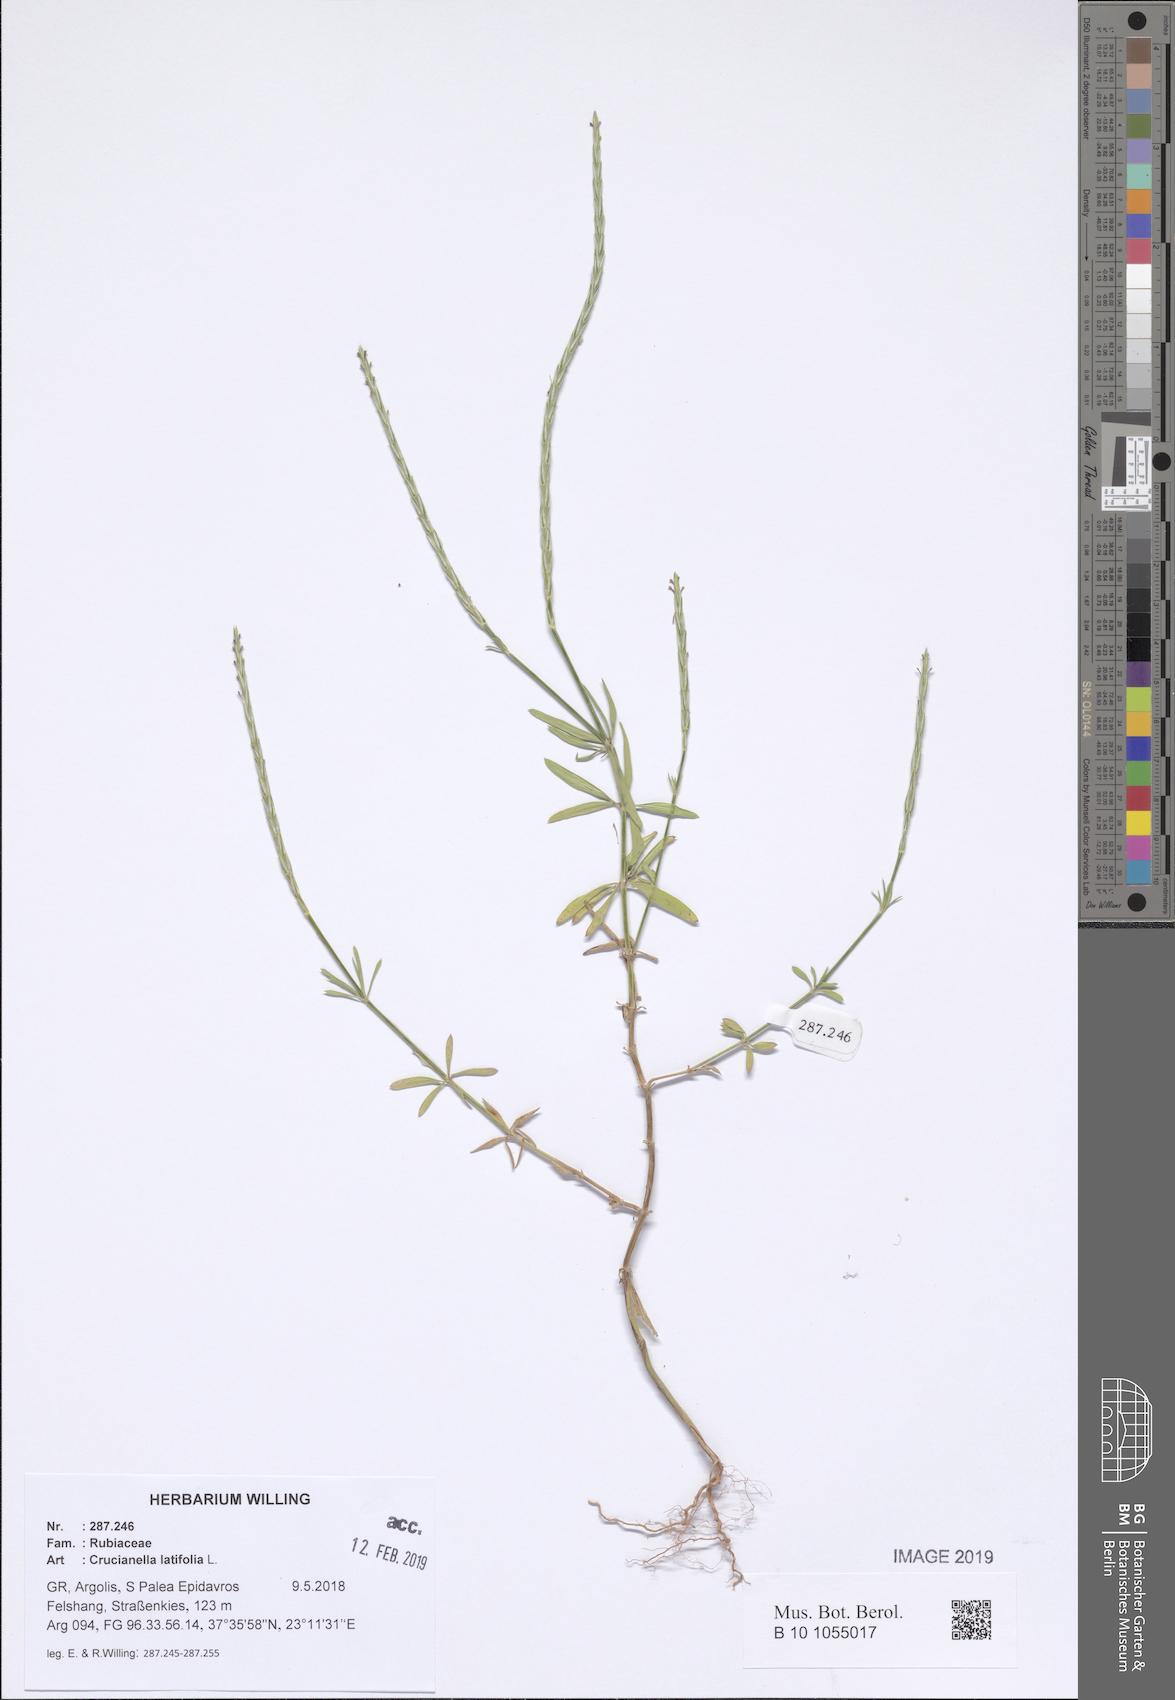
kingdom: Plantae
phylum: Tracheophyta
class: Magnoliopsida
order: Gentianales
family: Rubiaceae
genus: Crucianella
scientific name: Crucianella latifolia
